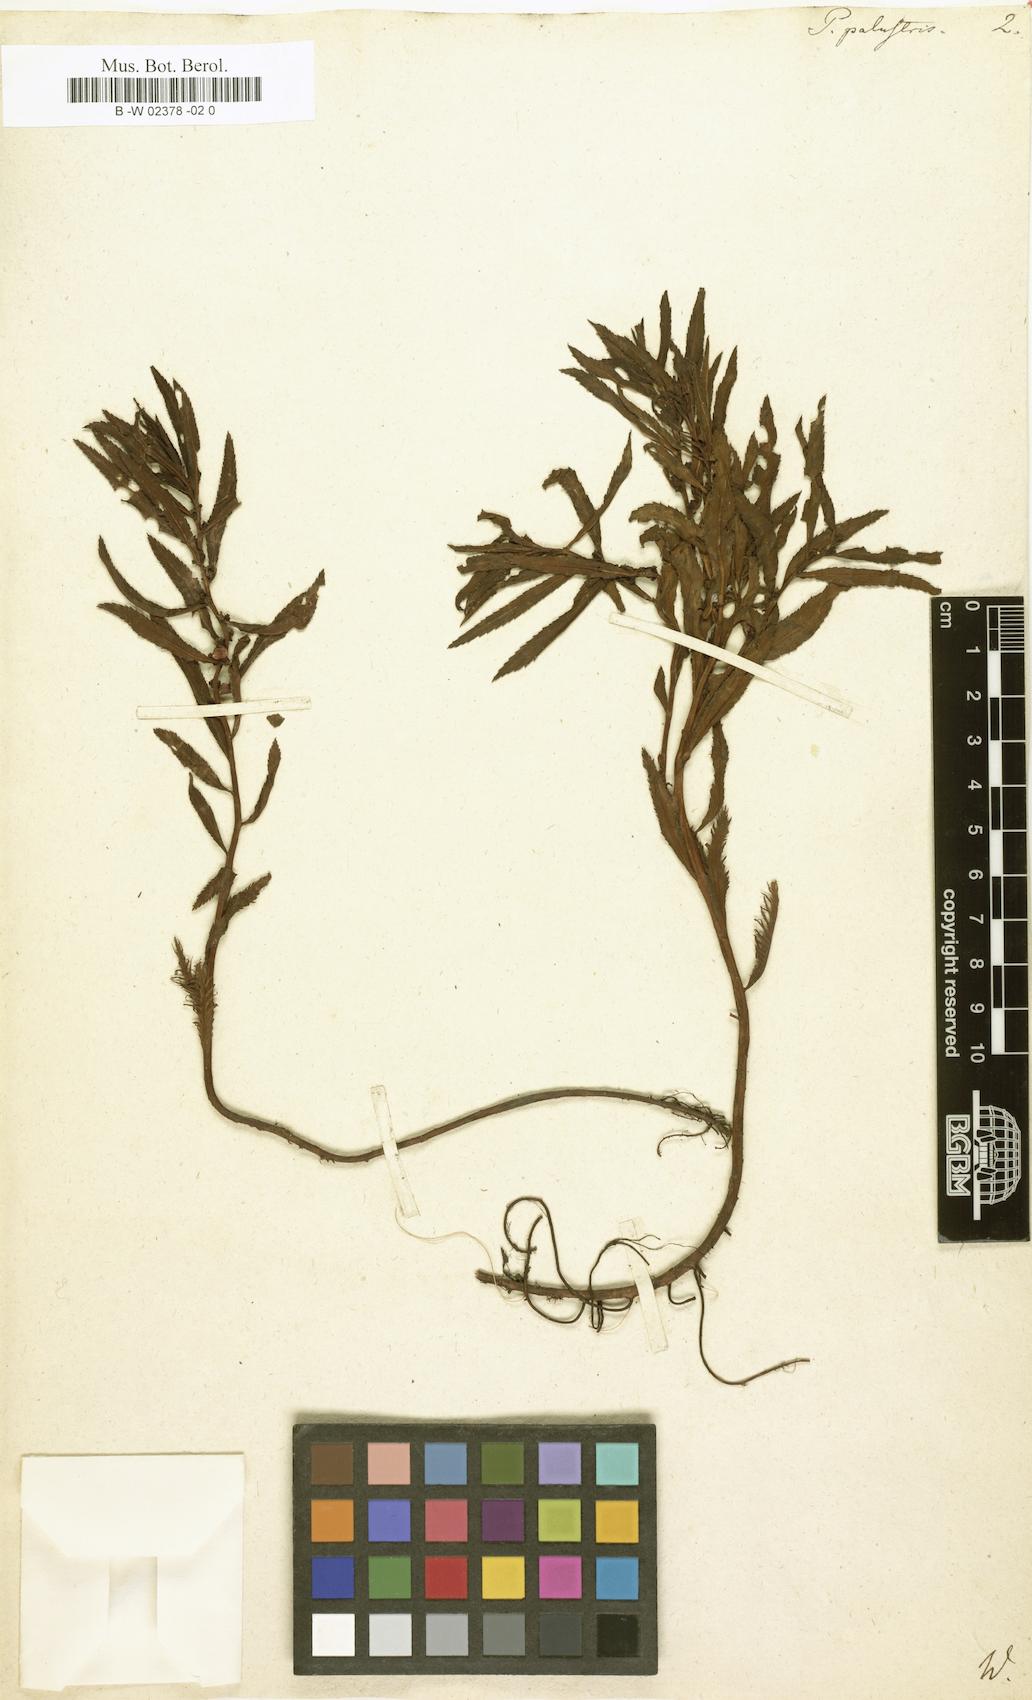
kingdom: Plantae
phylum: Tracheophyta
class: Magnoliopsida
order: Saxifragales
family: Haloragaceae
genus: Proserpinaca
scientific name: Proserpinaca palustris
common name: Marsh mermaidweed
